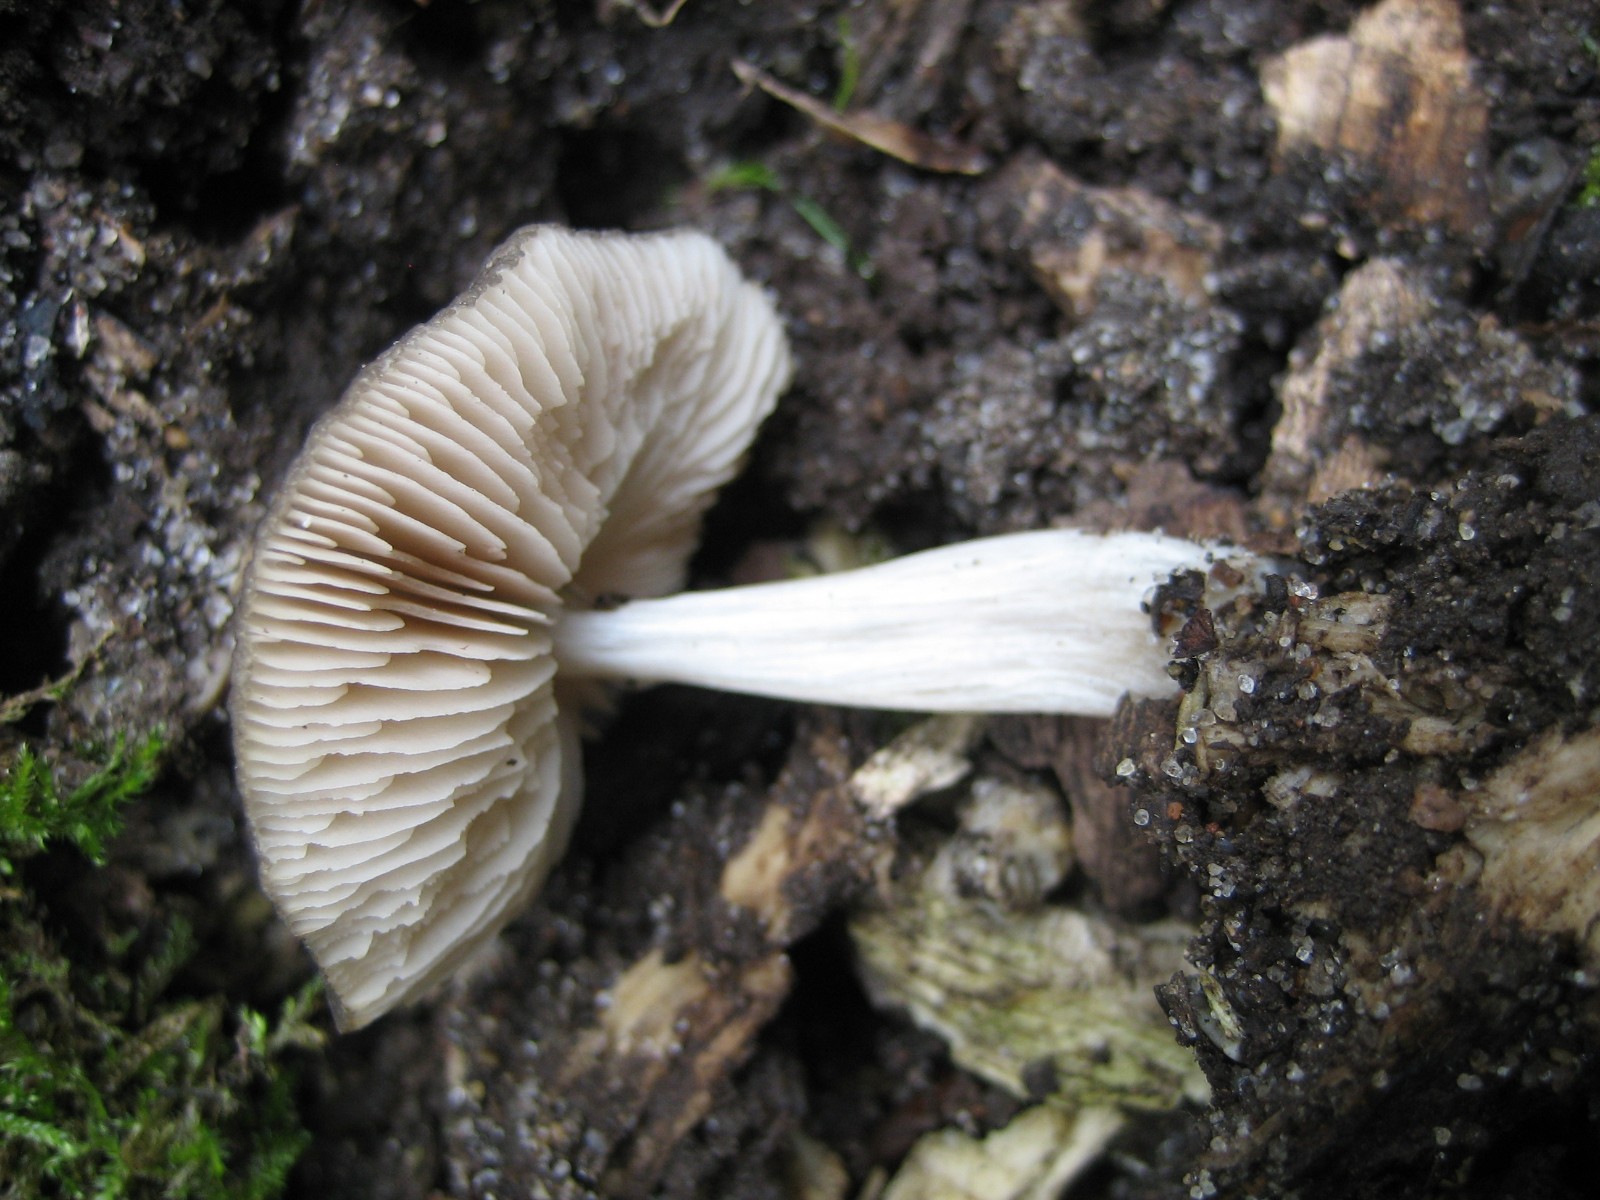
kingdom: Fungi
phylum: Basidiomycota
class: Agaricomycetes
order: Agaricales
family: Pluteaceae
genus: Pluteus
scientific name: Pluteus
